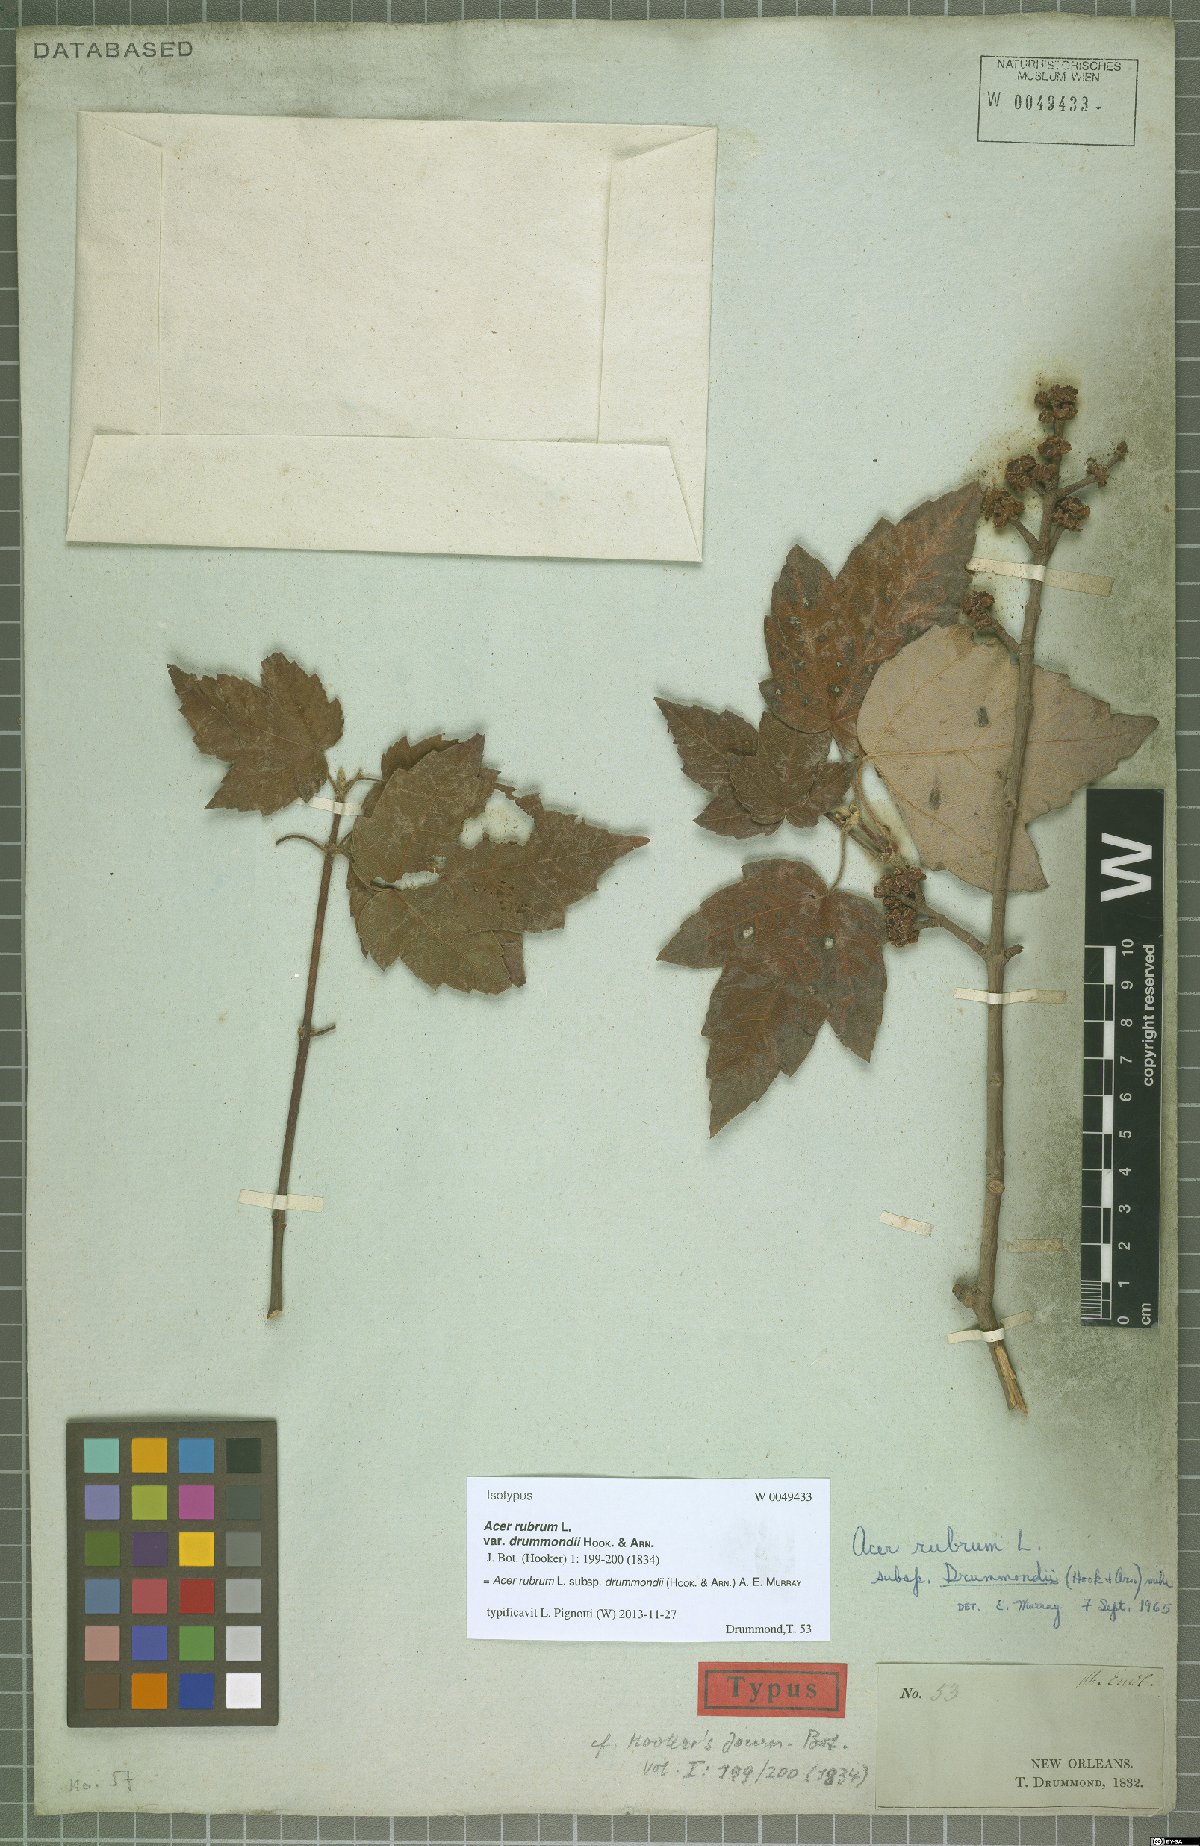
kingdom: Plantae
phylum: Tracheophyta
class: Magnoliopsida
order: Sapindales
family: Sapindaceae
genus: Acer
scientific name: Acer rubrum
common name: Red maple
